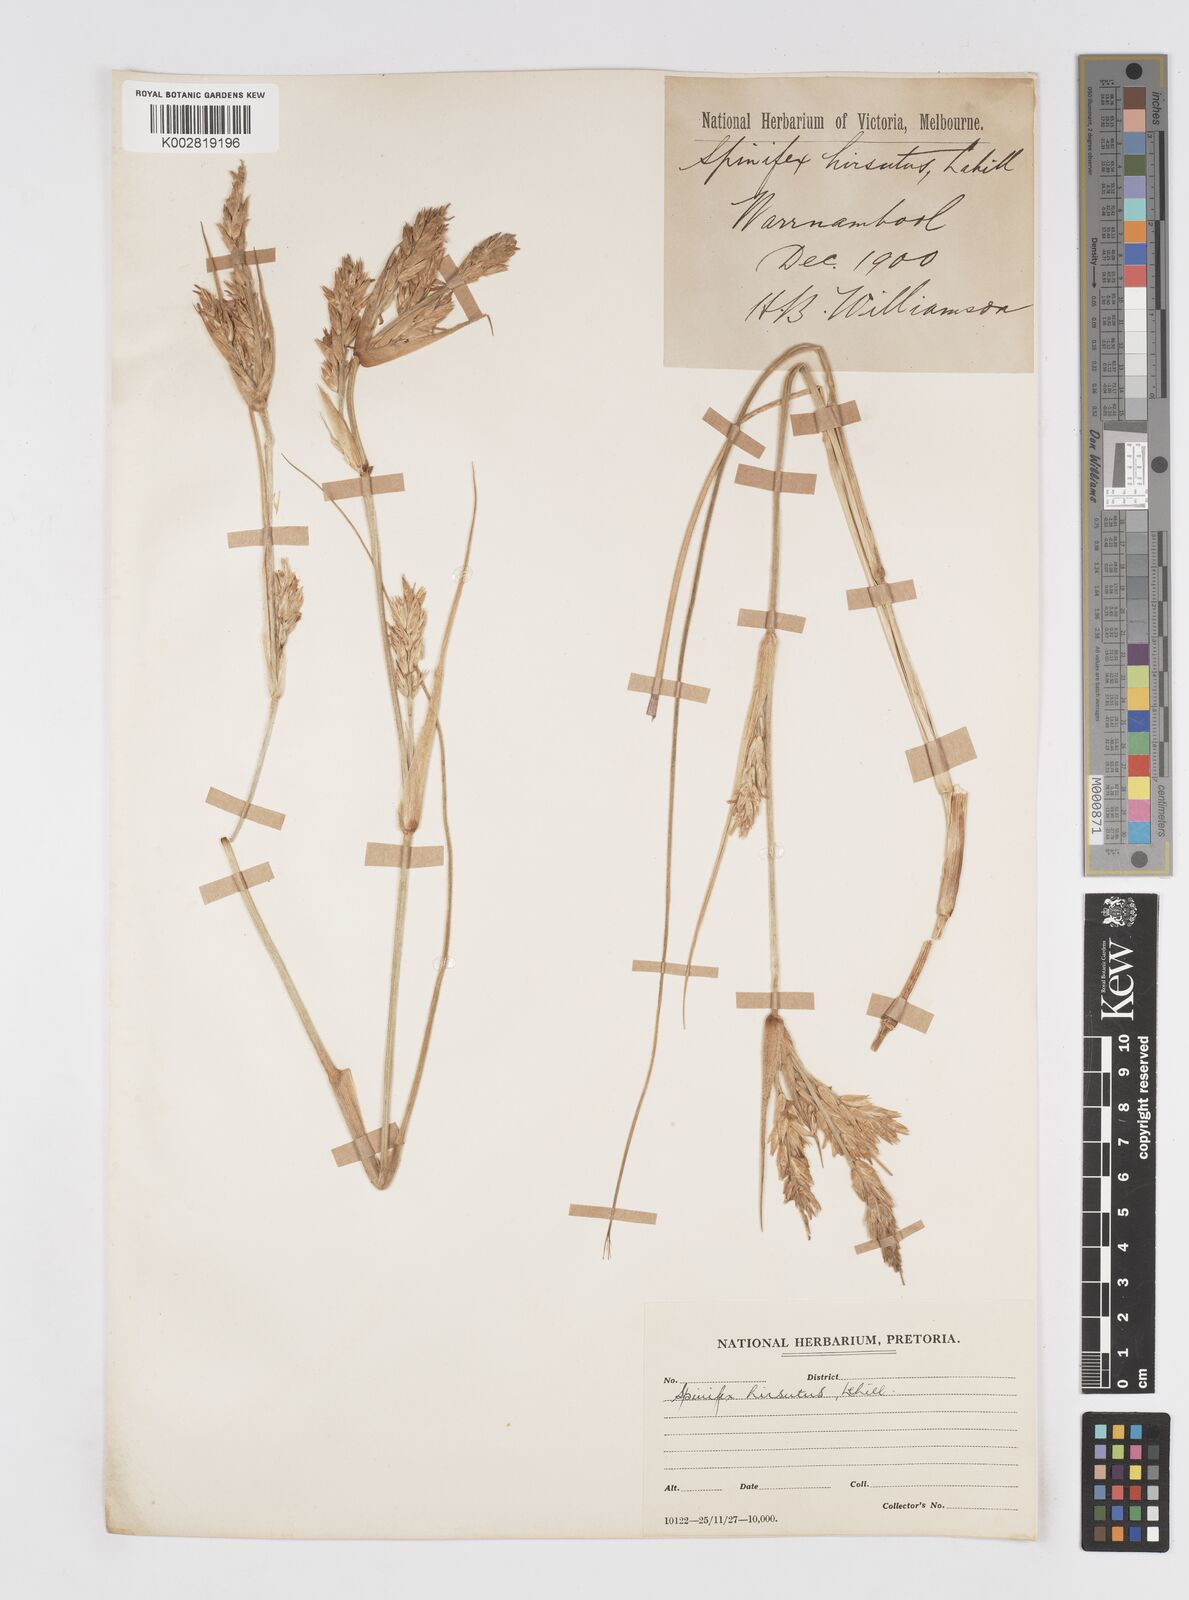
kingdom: Plantae
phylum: Tracheophyta
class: Liliopsida
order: Poales
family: Poaceae
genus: Spinifex
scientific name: Spinifex sericeus
